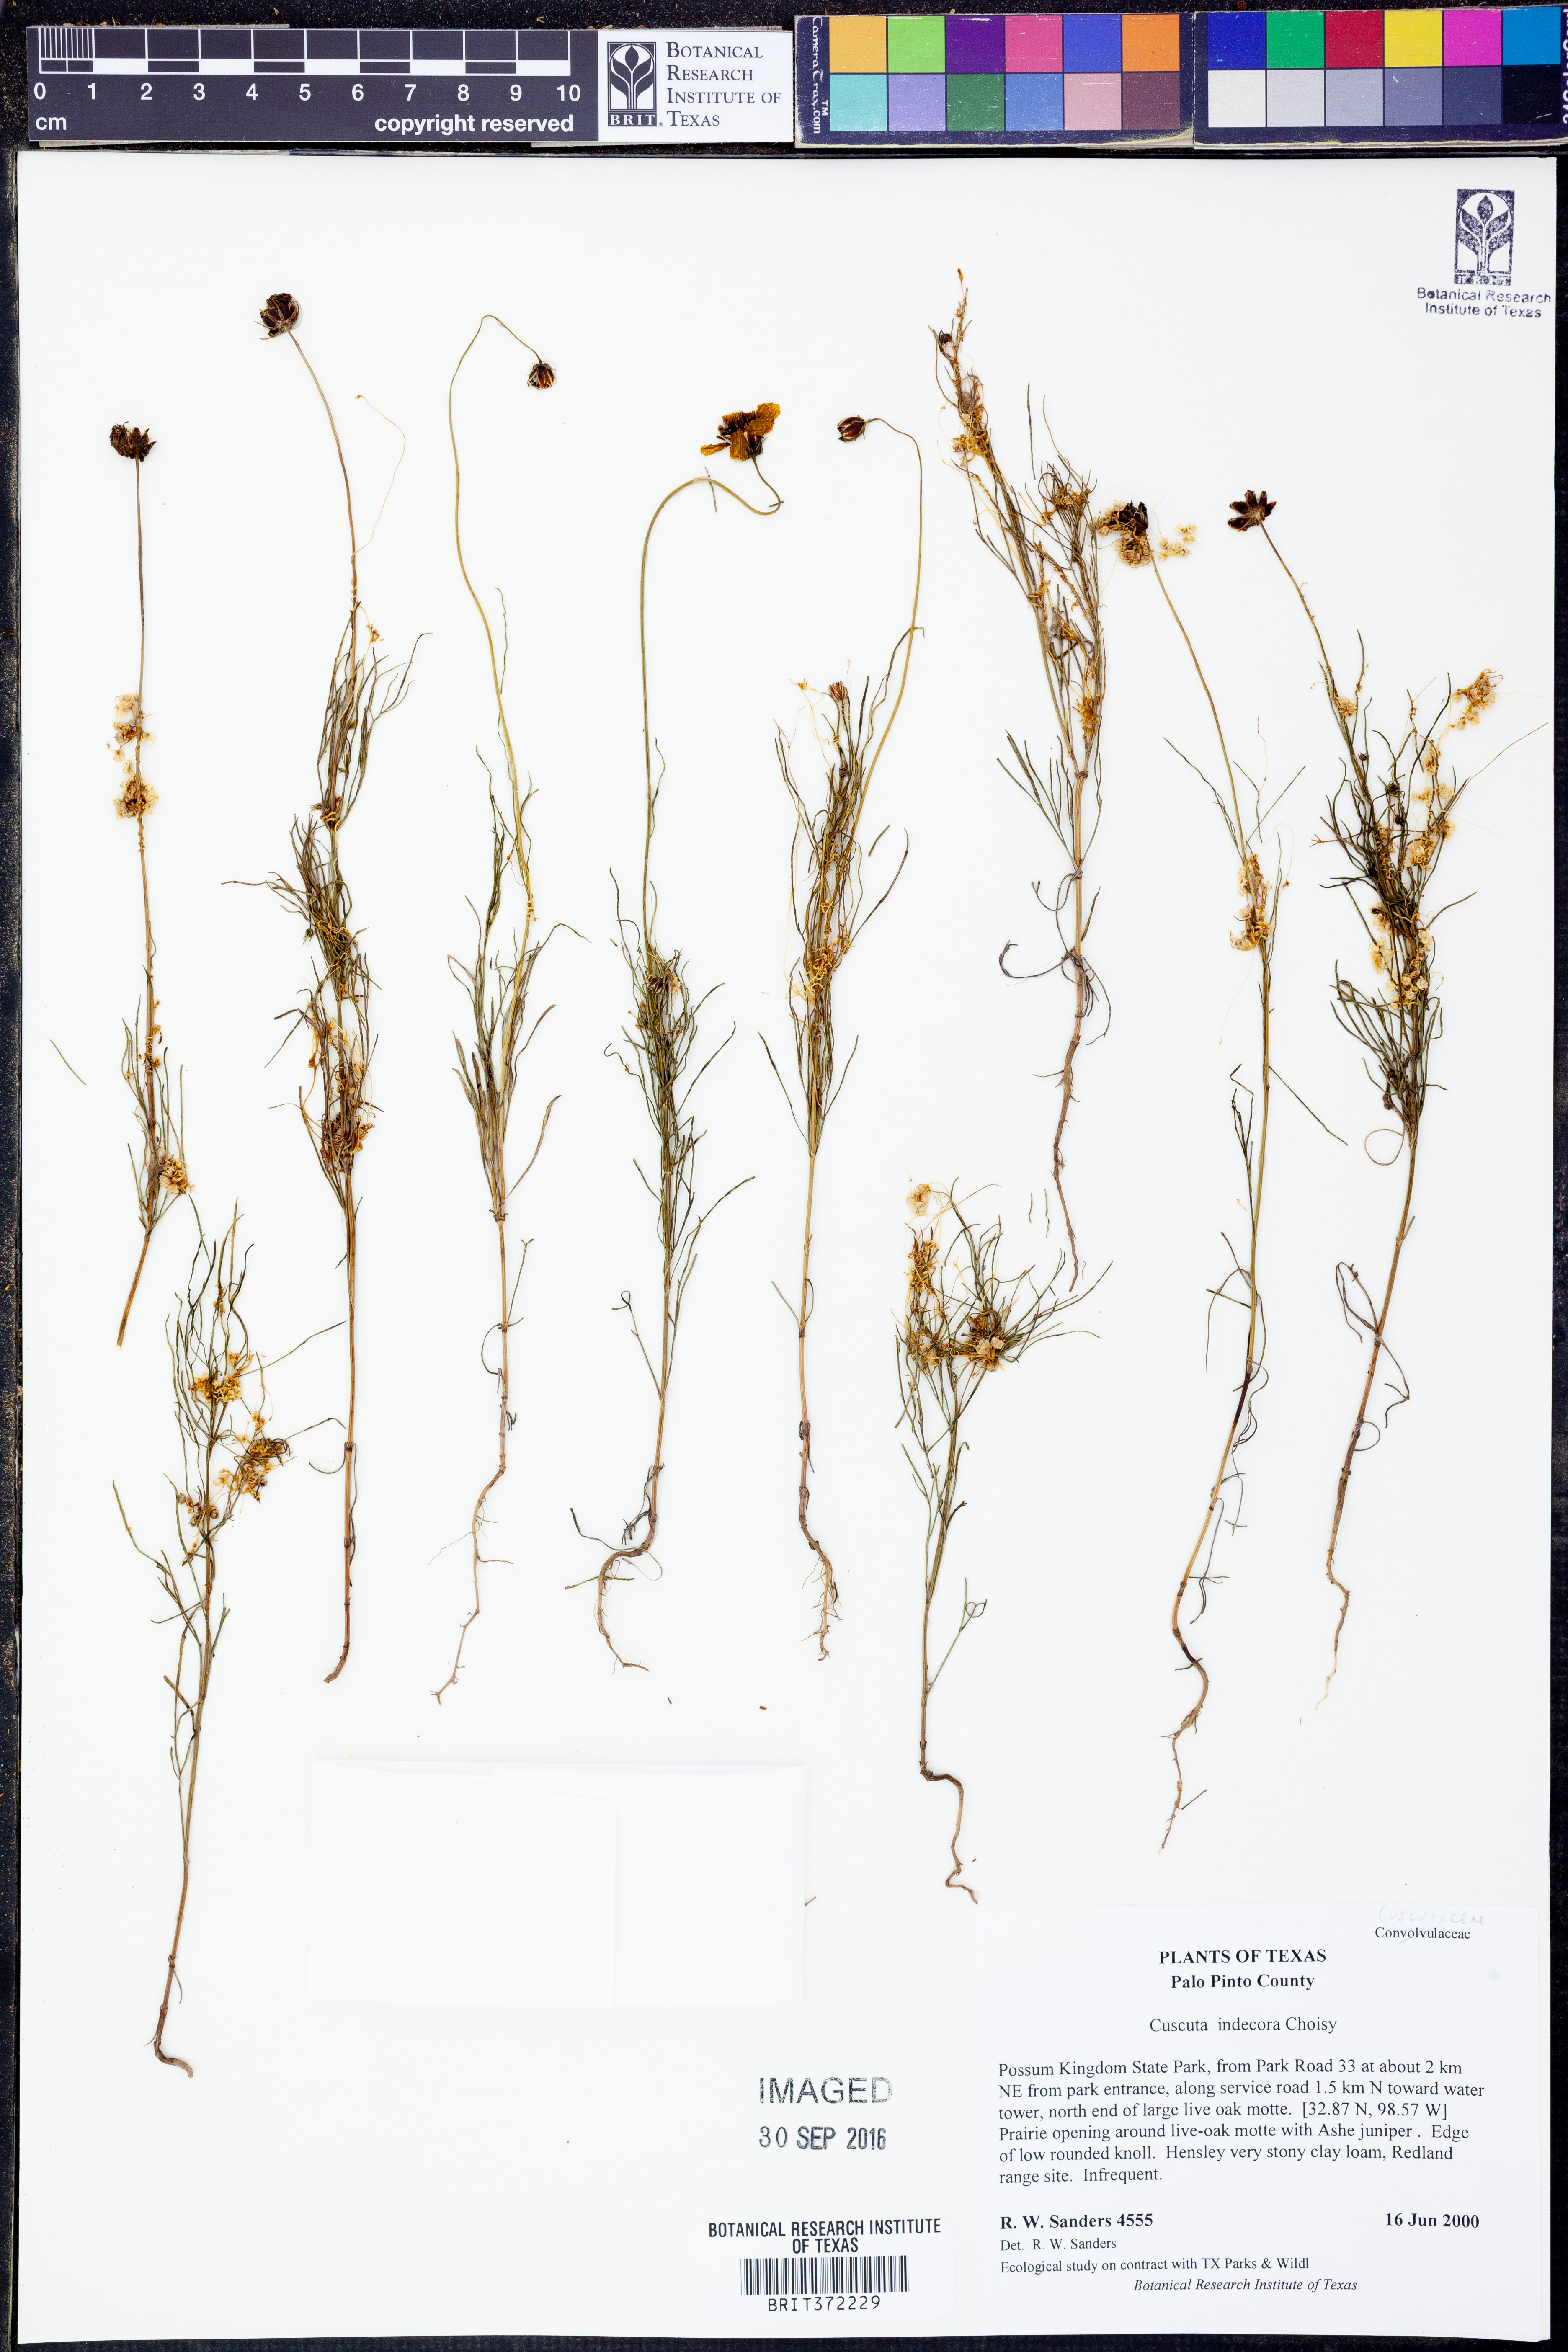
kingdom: Plantae
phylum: Tracheophyta
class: Magnoliopsida
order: Solanales
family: Convolvulaceae
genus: Cuscuta
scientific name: Cuscuta indecora
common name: Large-seed dodder
